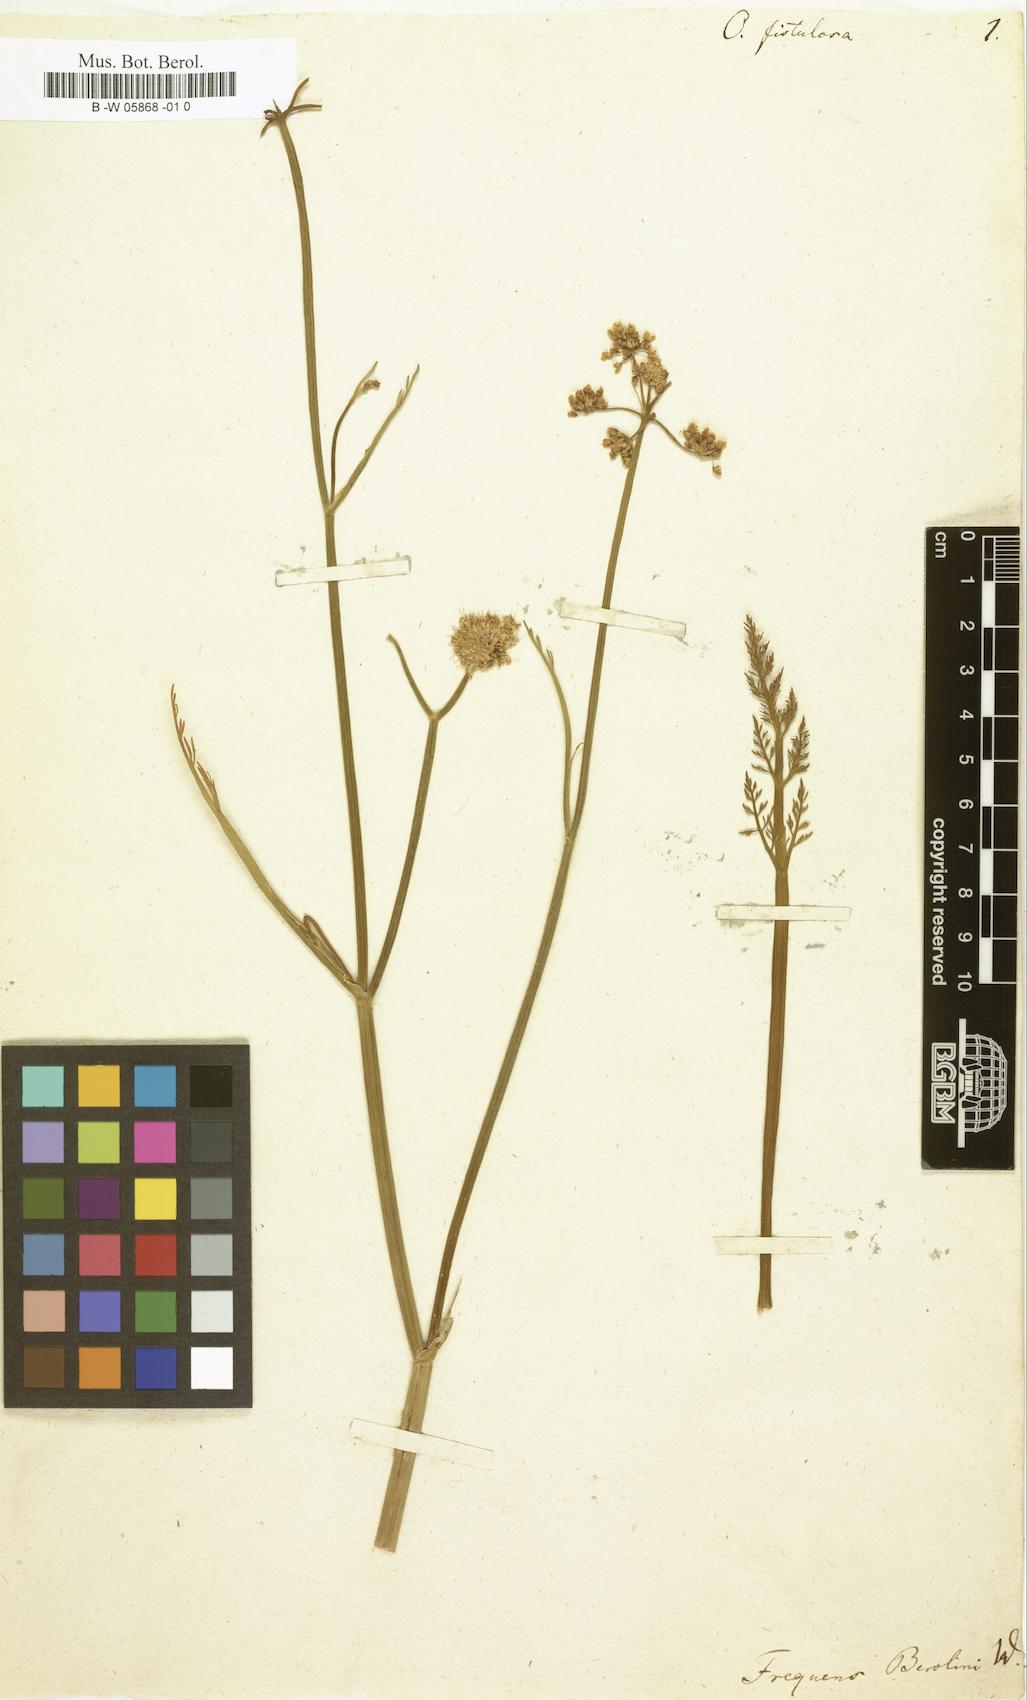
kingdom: Plantae
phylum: Tracheophyta
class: Magnoliopsida
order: Apiales
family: Apiaceae
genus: Oenanthe
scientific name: Oenanthe fistulosa
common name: Tubular water-dropwort
